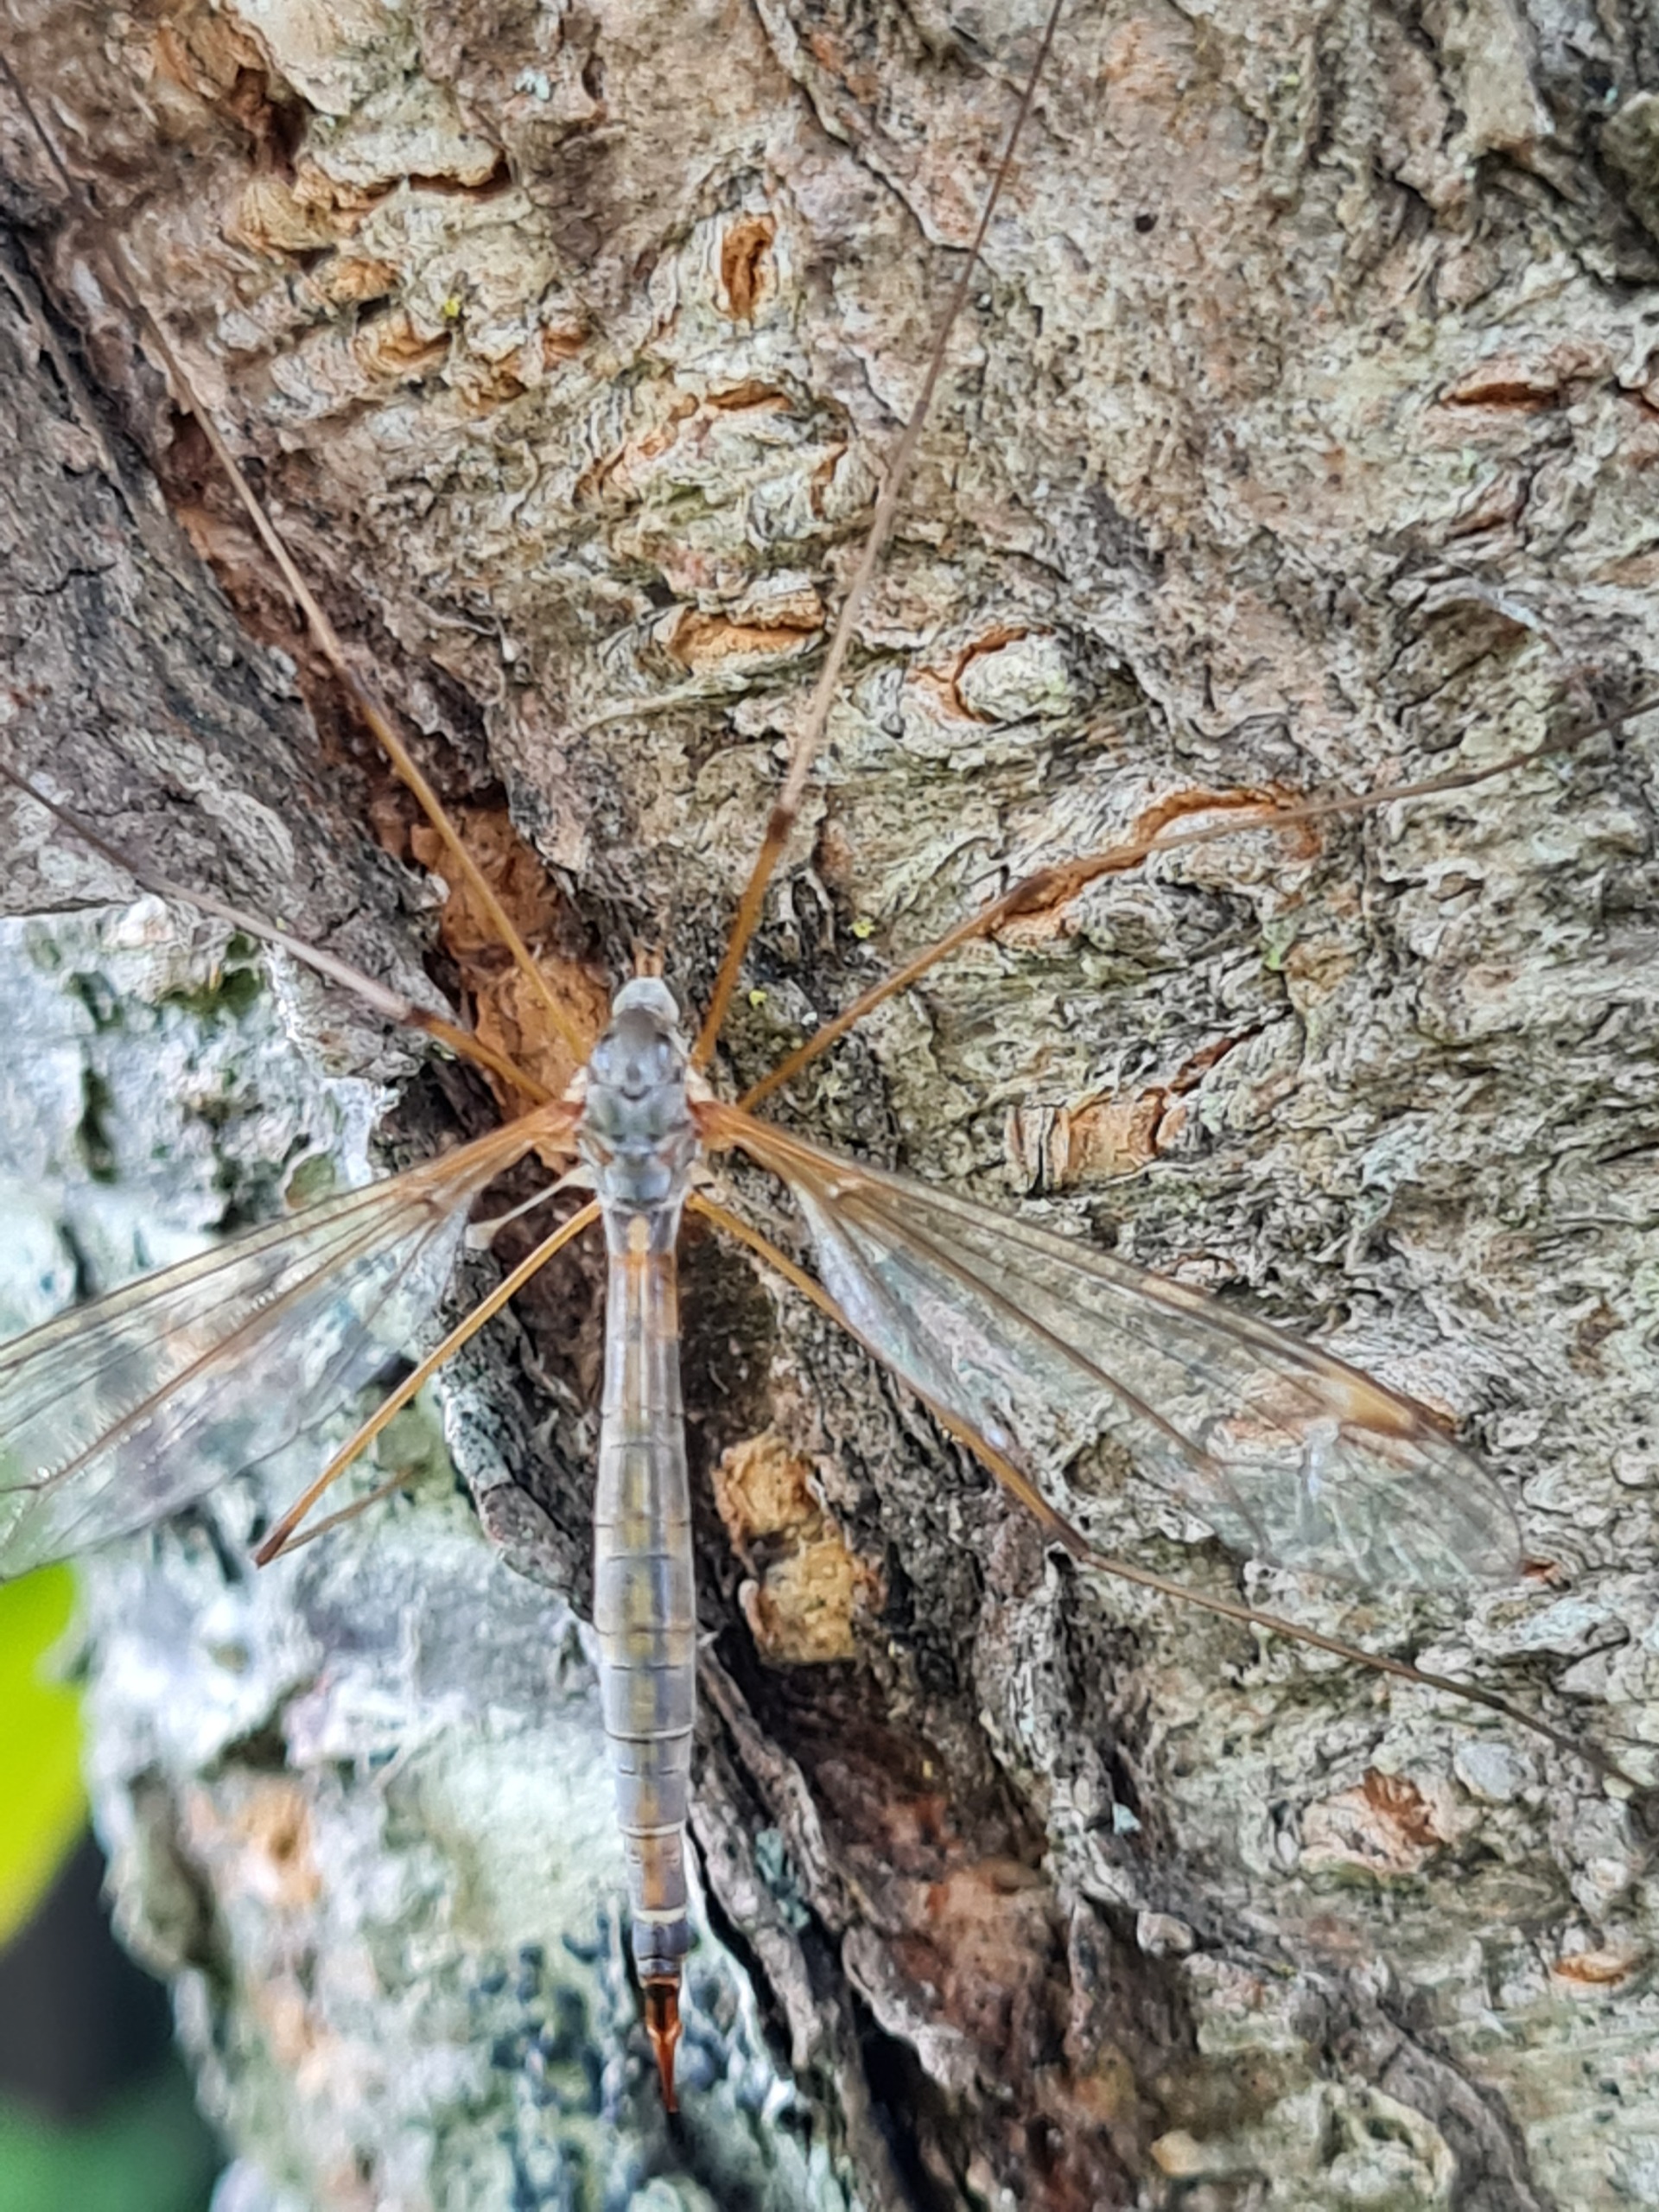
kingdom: Animalia
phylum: Arthropoda
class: Insecta
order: Diptera
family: Tipulidae
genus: Tipula
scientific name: Tipula flavolineata
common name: Stribet stankelben
